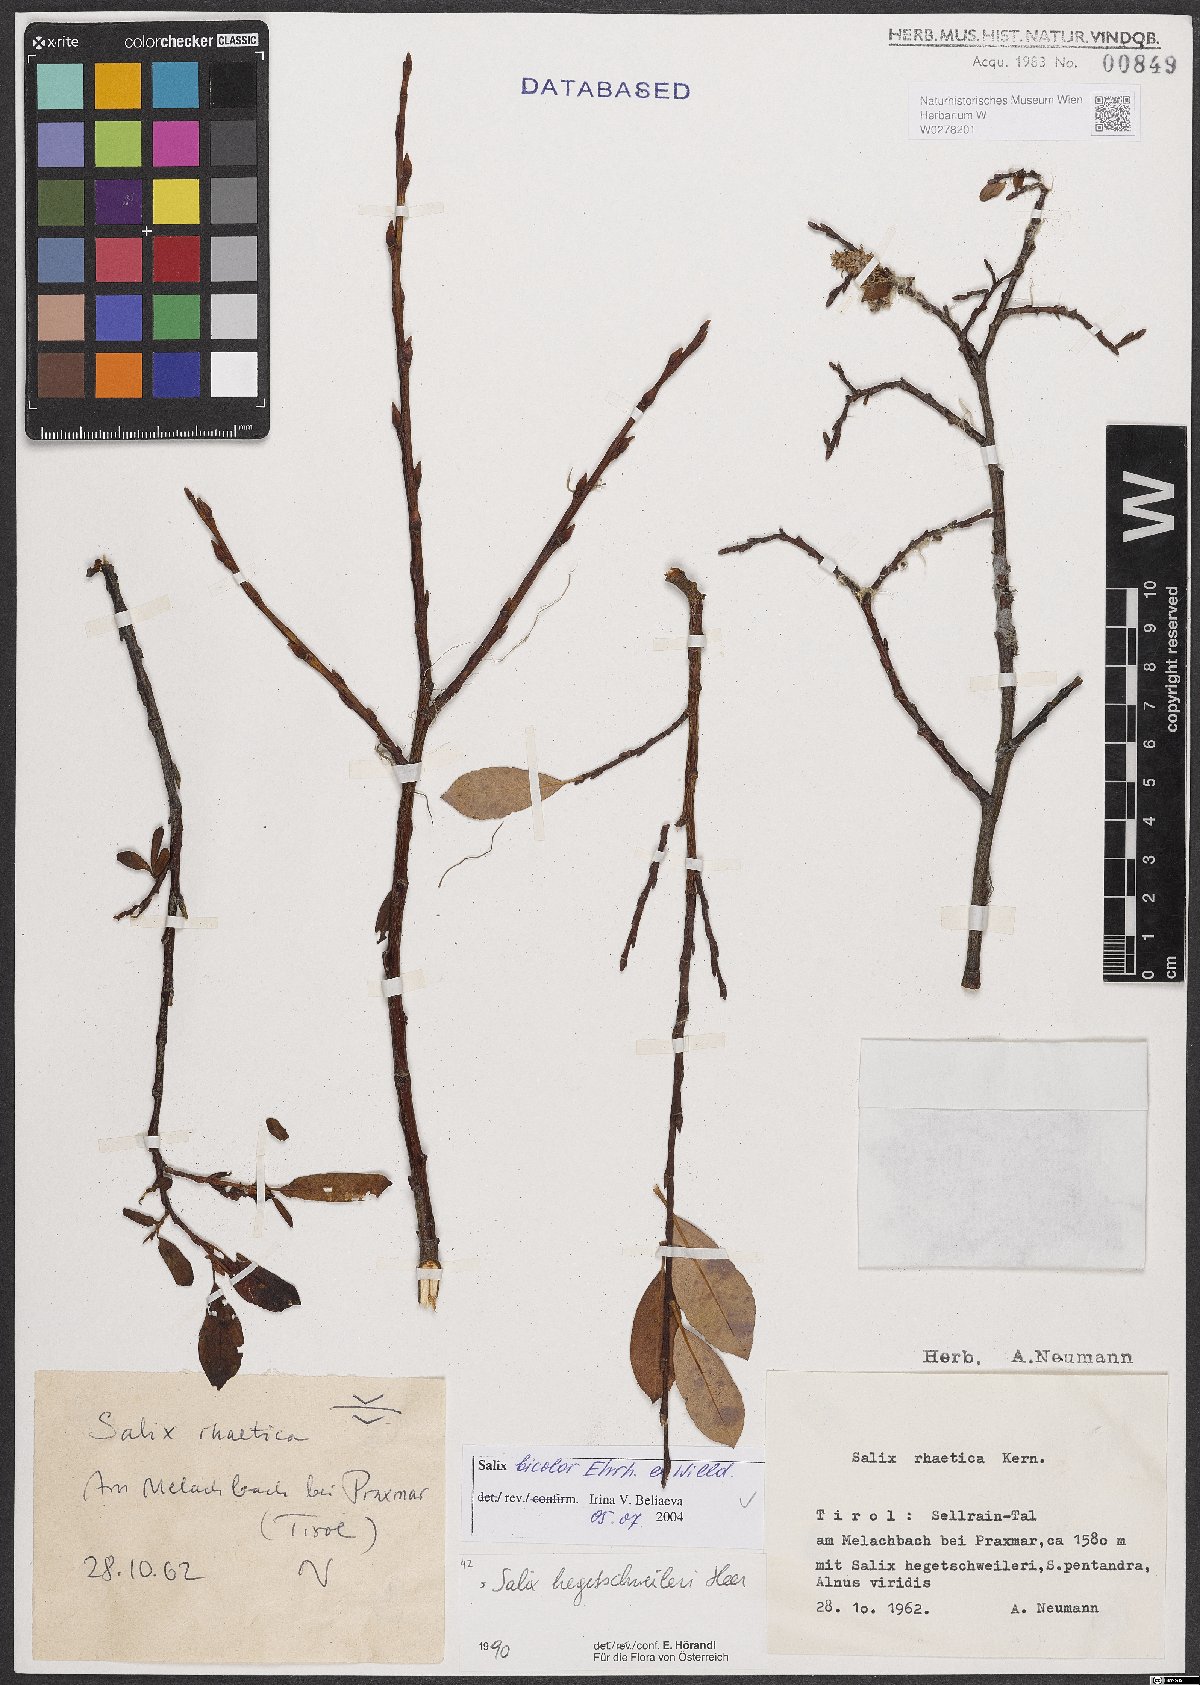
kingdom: Plantae
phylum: Tracheophyta
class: Magnoliopsida
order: Malpighiales
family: Salicaceae
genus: Salix
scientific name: Salix bicolor
